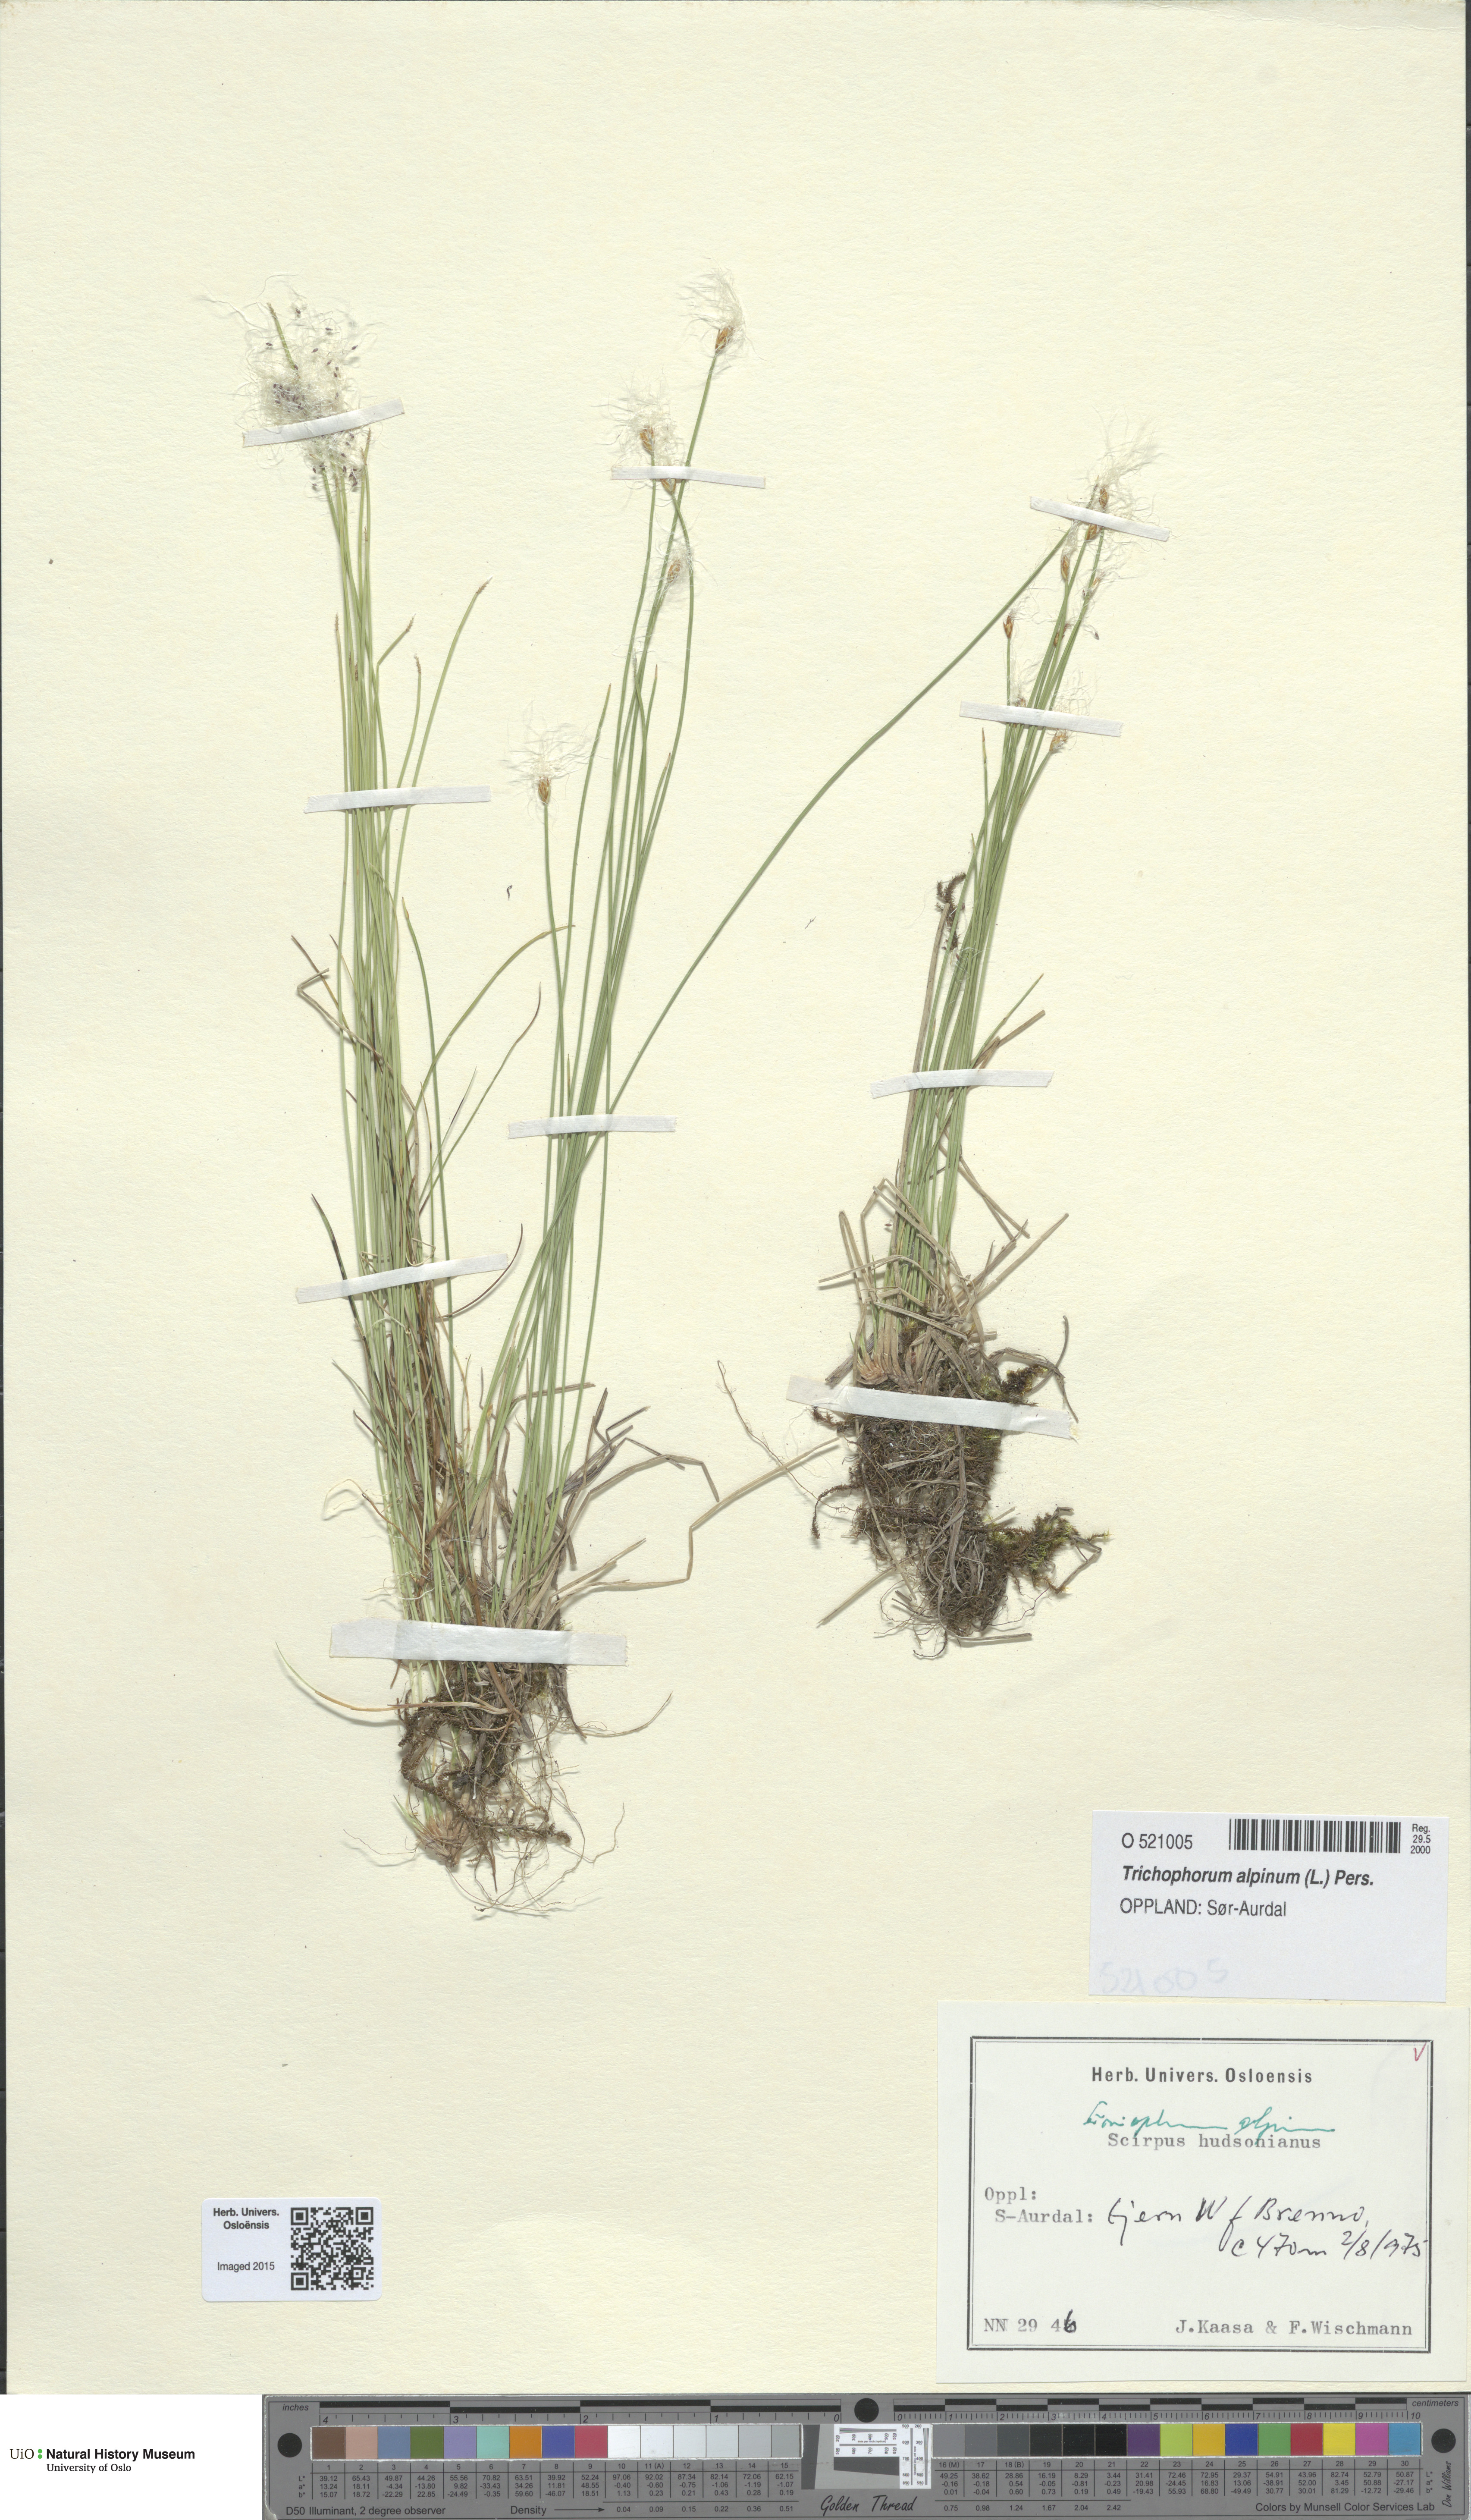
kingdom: Plantae
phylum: Tracheophyta
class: Liliopsida
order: Poales
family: Cyperaceae
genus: Trichophorum
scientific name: Trichophorum alpinum
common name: Alpine bulrush
